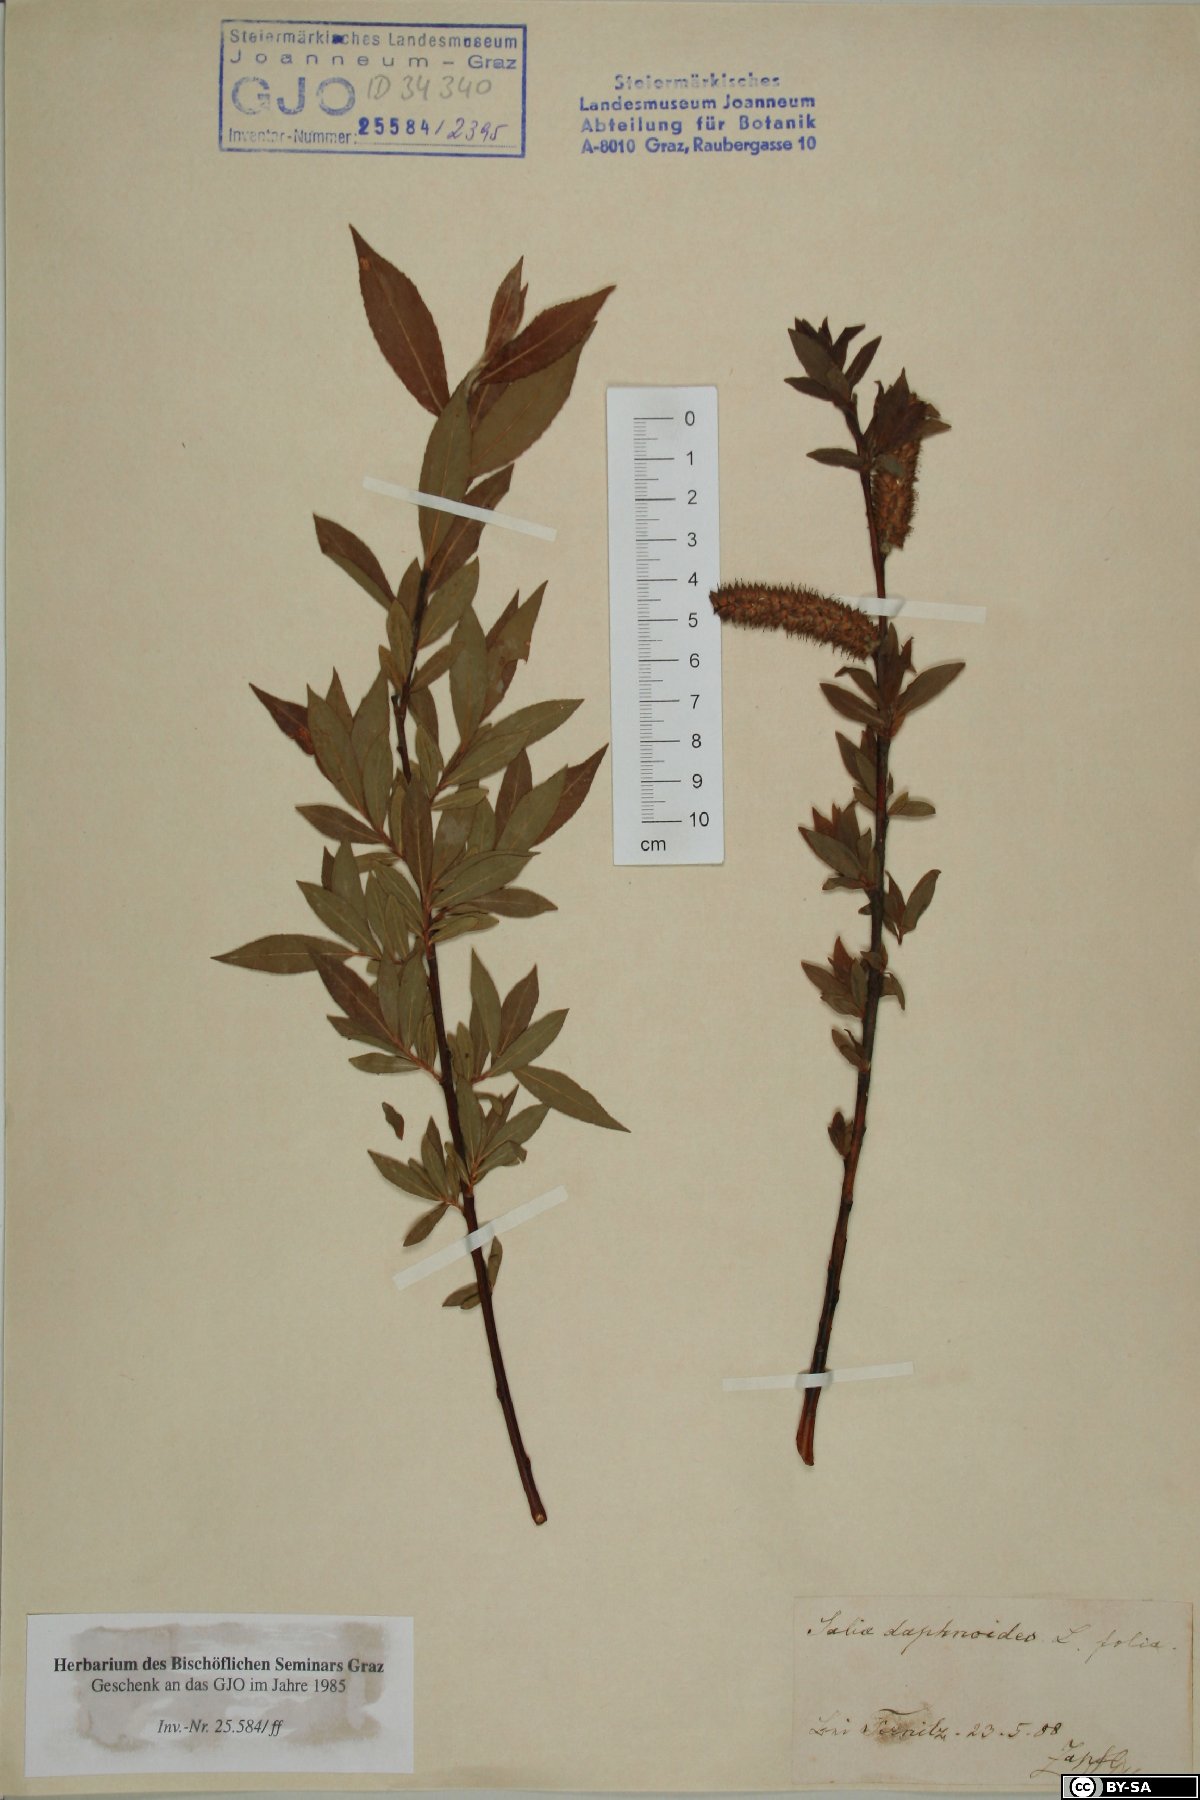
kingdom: Plantae
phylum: Tracheophyta
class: Magnoliopsida
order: Malpighiales
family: Salicaceae
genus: Salix
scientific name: Salix daphnoides
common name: European violet-willow
